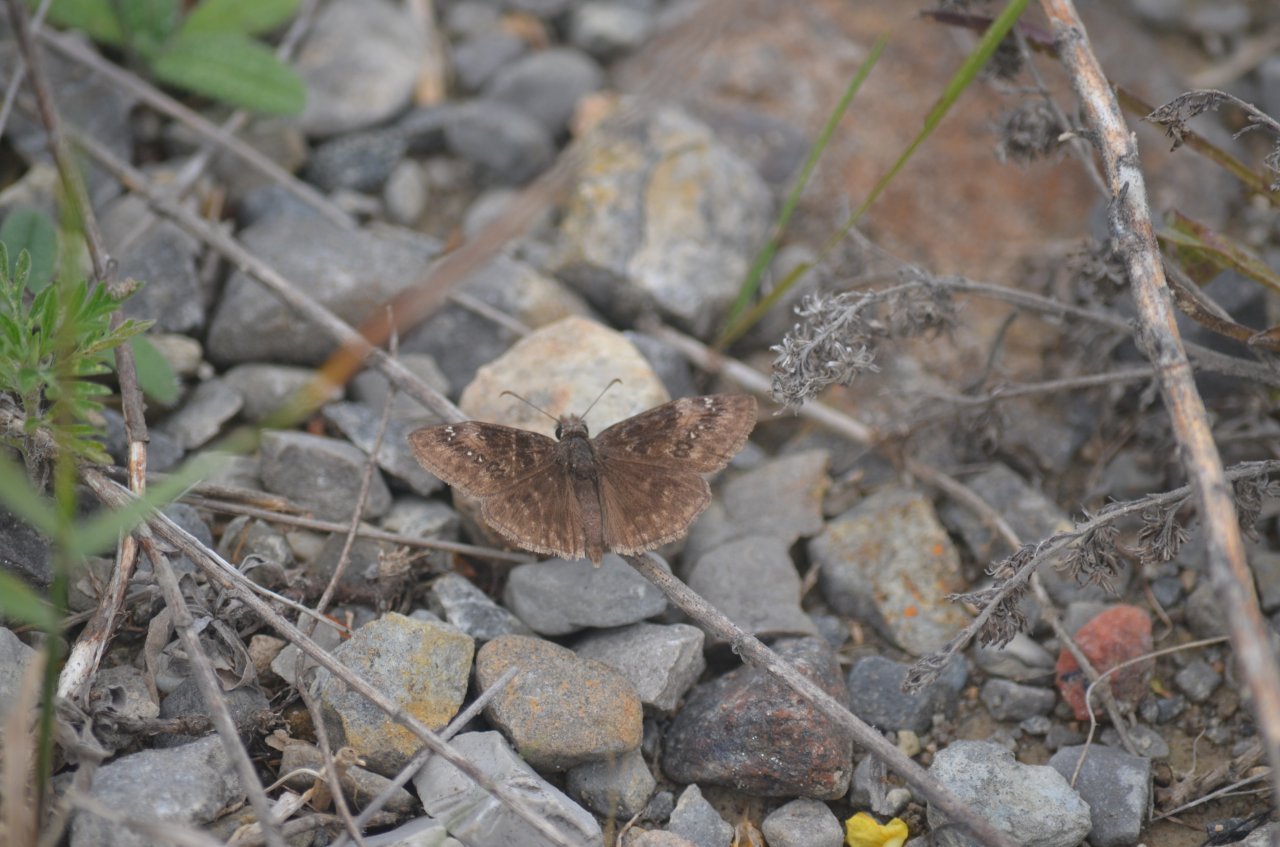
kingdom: Animalia
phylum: Arthropoda
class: Insecta
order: Lepidoptera
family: Hesperiidae
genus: Gesta
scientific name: Gesta
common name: Wild Indigo Duskywing
